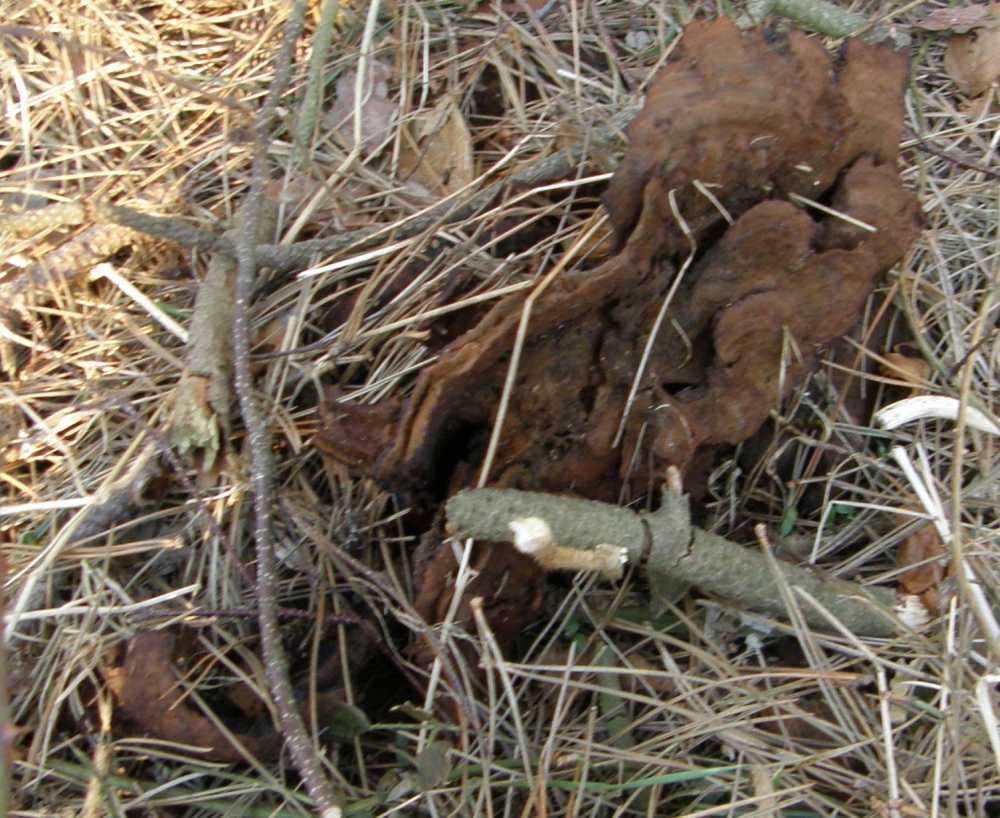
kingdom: Fungi
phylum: Basidiomycota
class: Agaricomycetes
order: Polyporales
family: Laetiporaceae
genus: Phaeolus
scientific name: Phaeolus schweinitzii
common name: brunporesvamp
